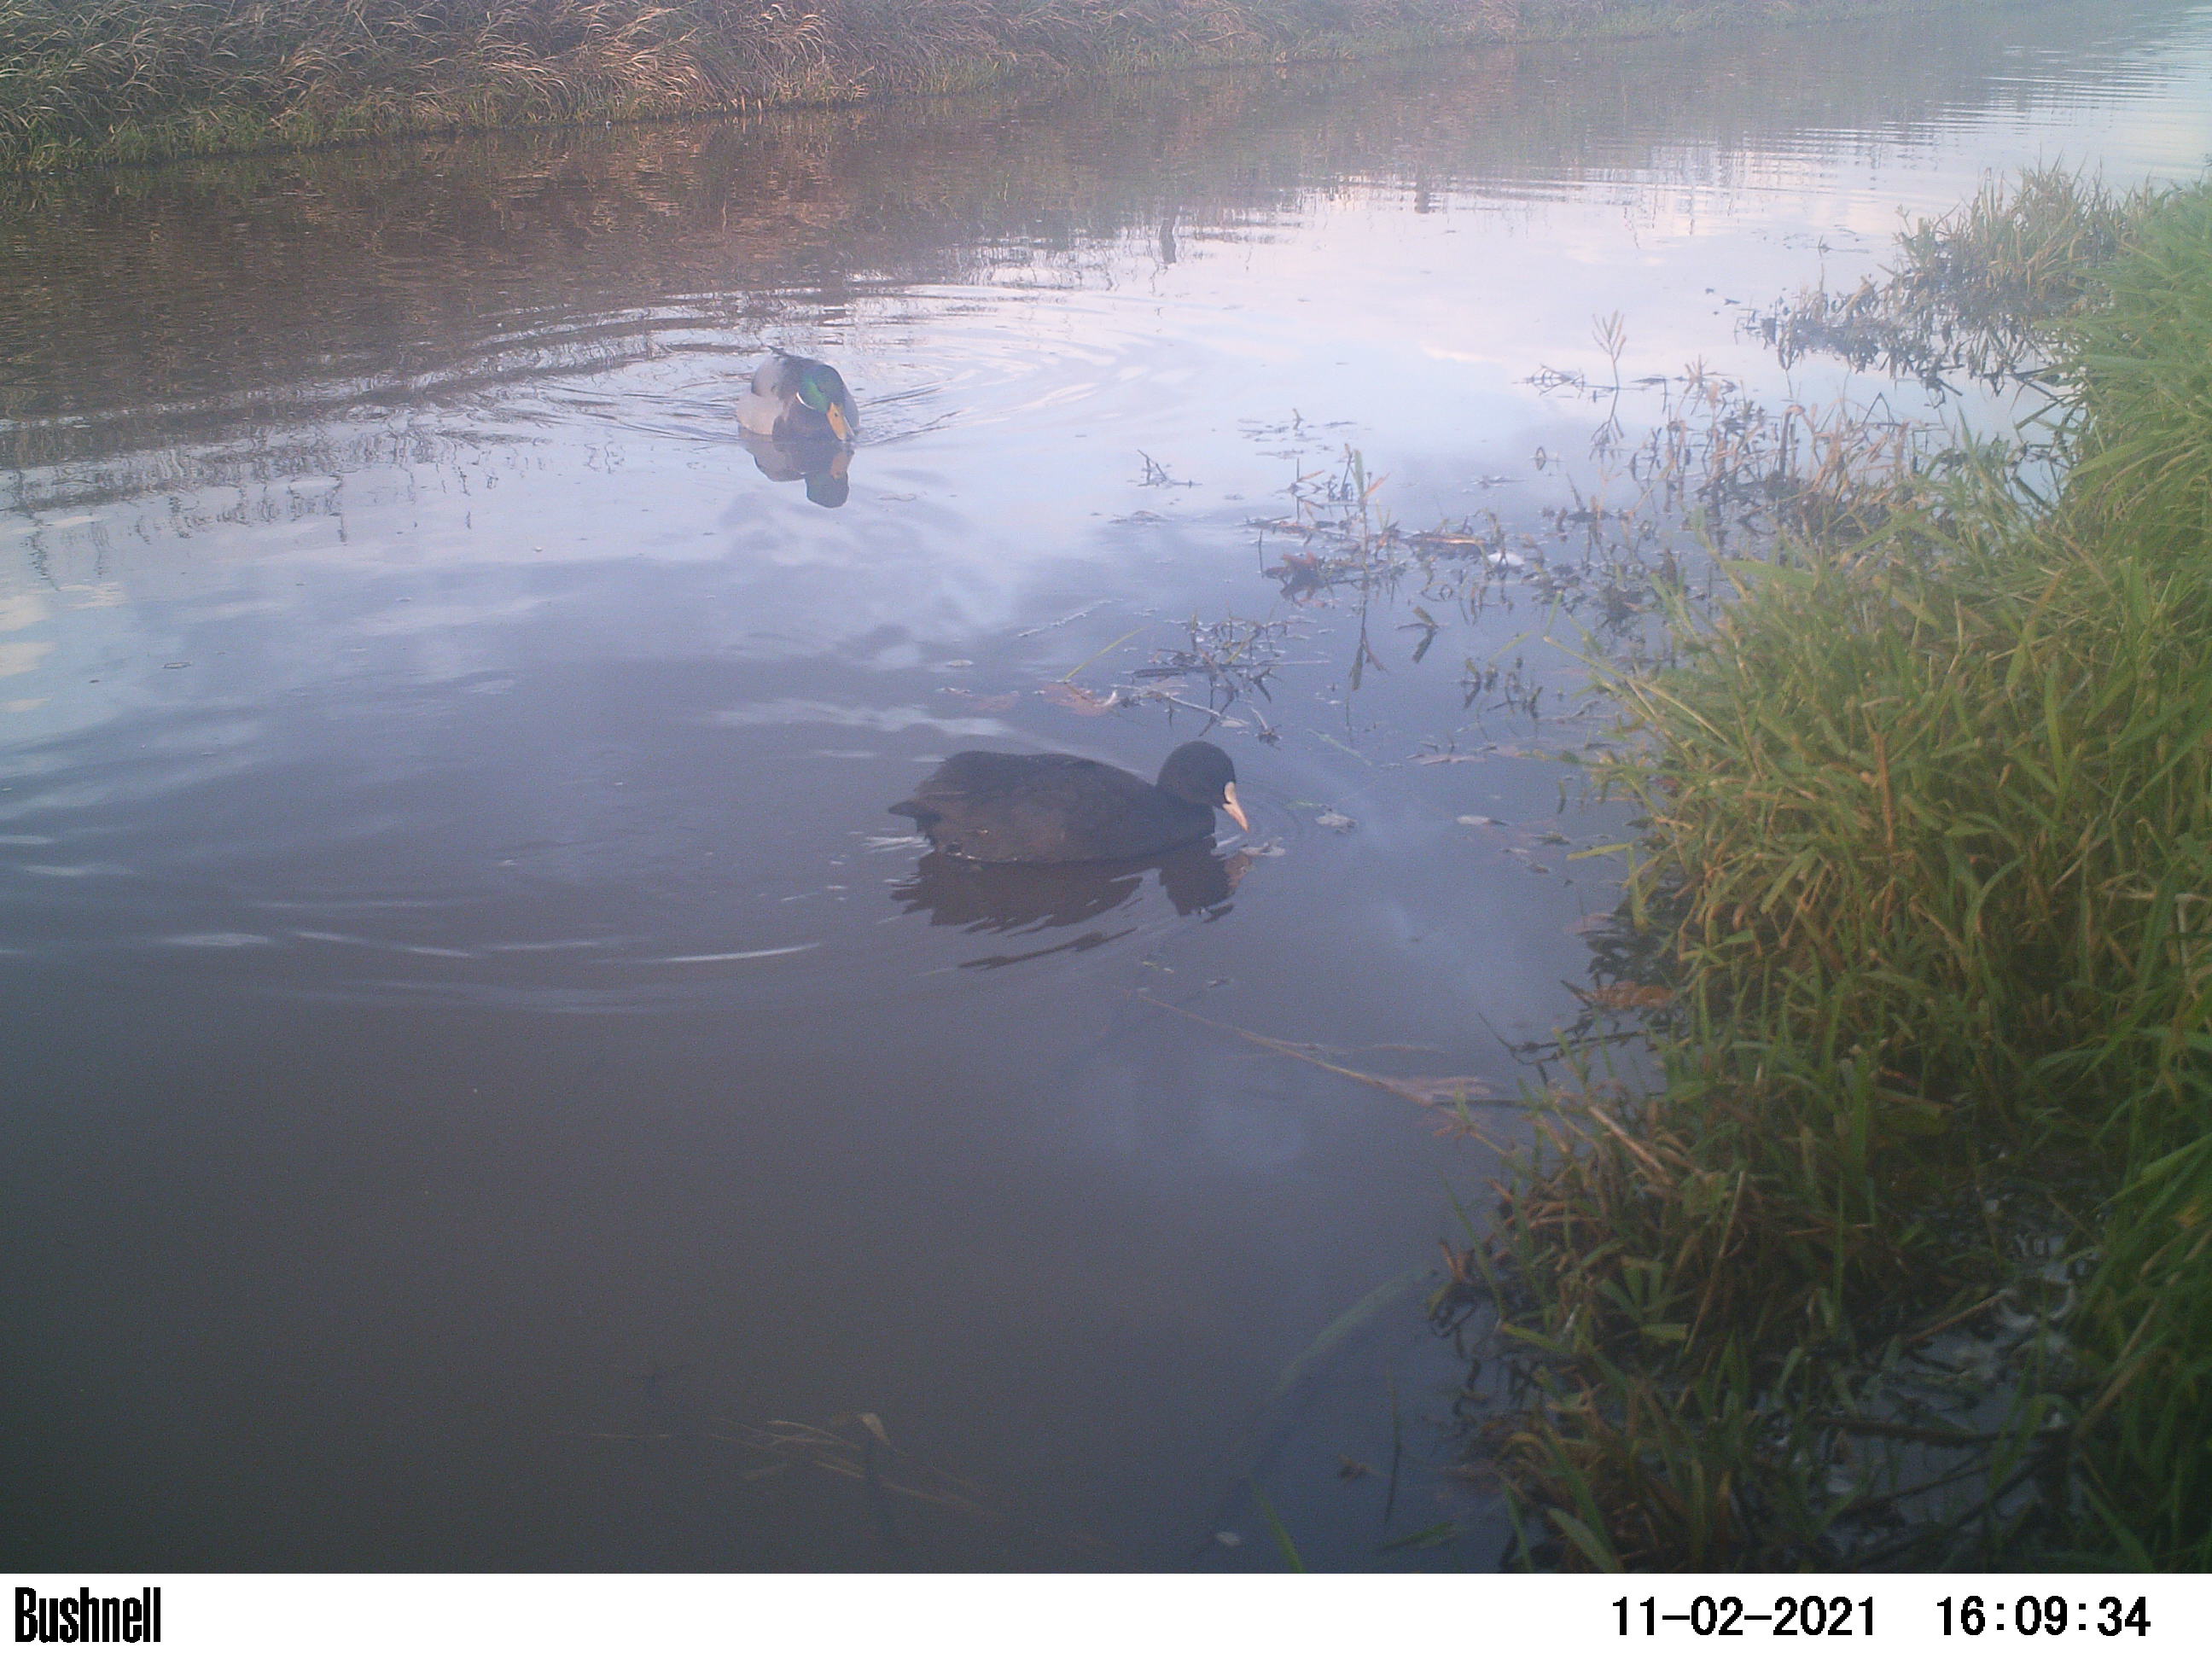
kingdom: Animalia
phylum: Chordata
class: Aves
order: Gruiformes
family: Rallidae
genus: Fulica
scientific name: Fulica atra
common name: Eurasian coot
